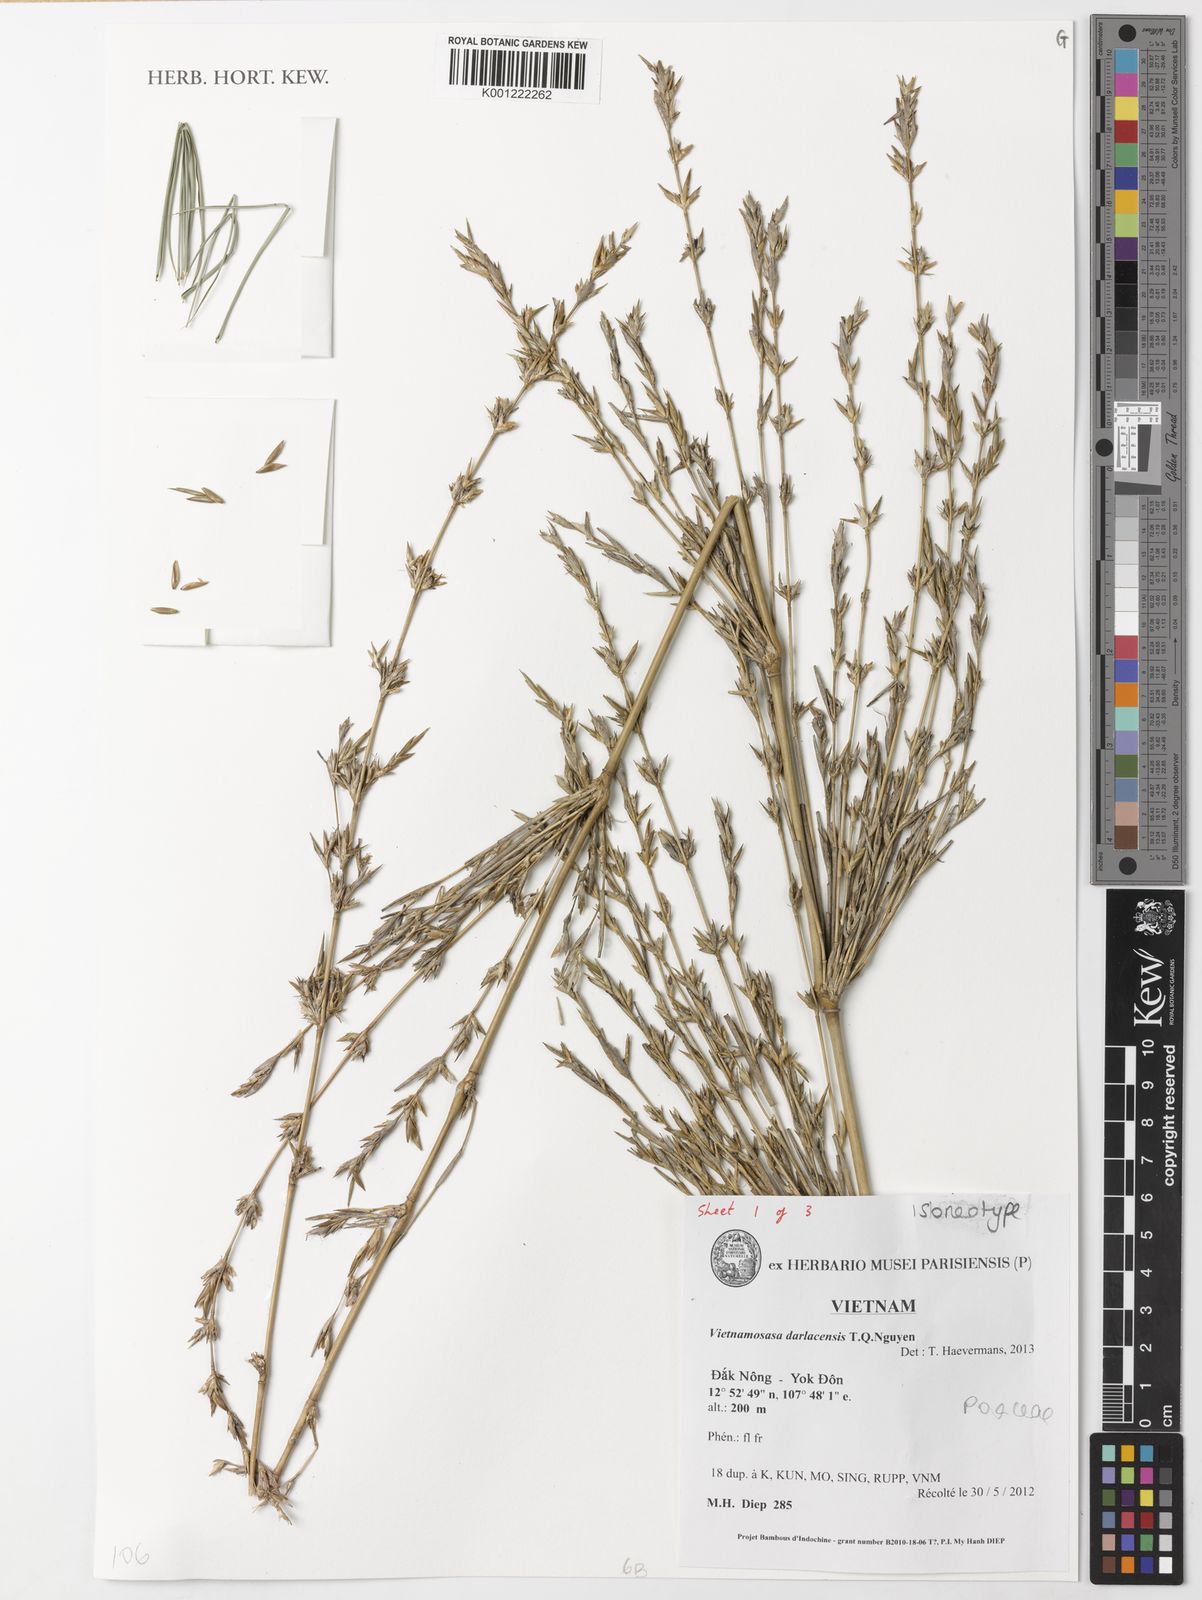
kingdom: Plantae
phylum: Tracheophyta
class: Liliopsida
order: Poales
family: Poaceae
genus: Vietnamosasa
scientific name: Vietnamosasa darlacensis
